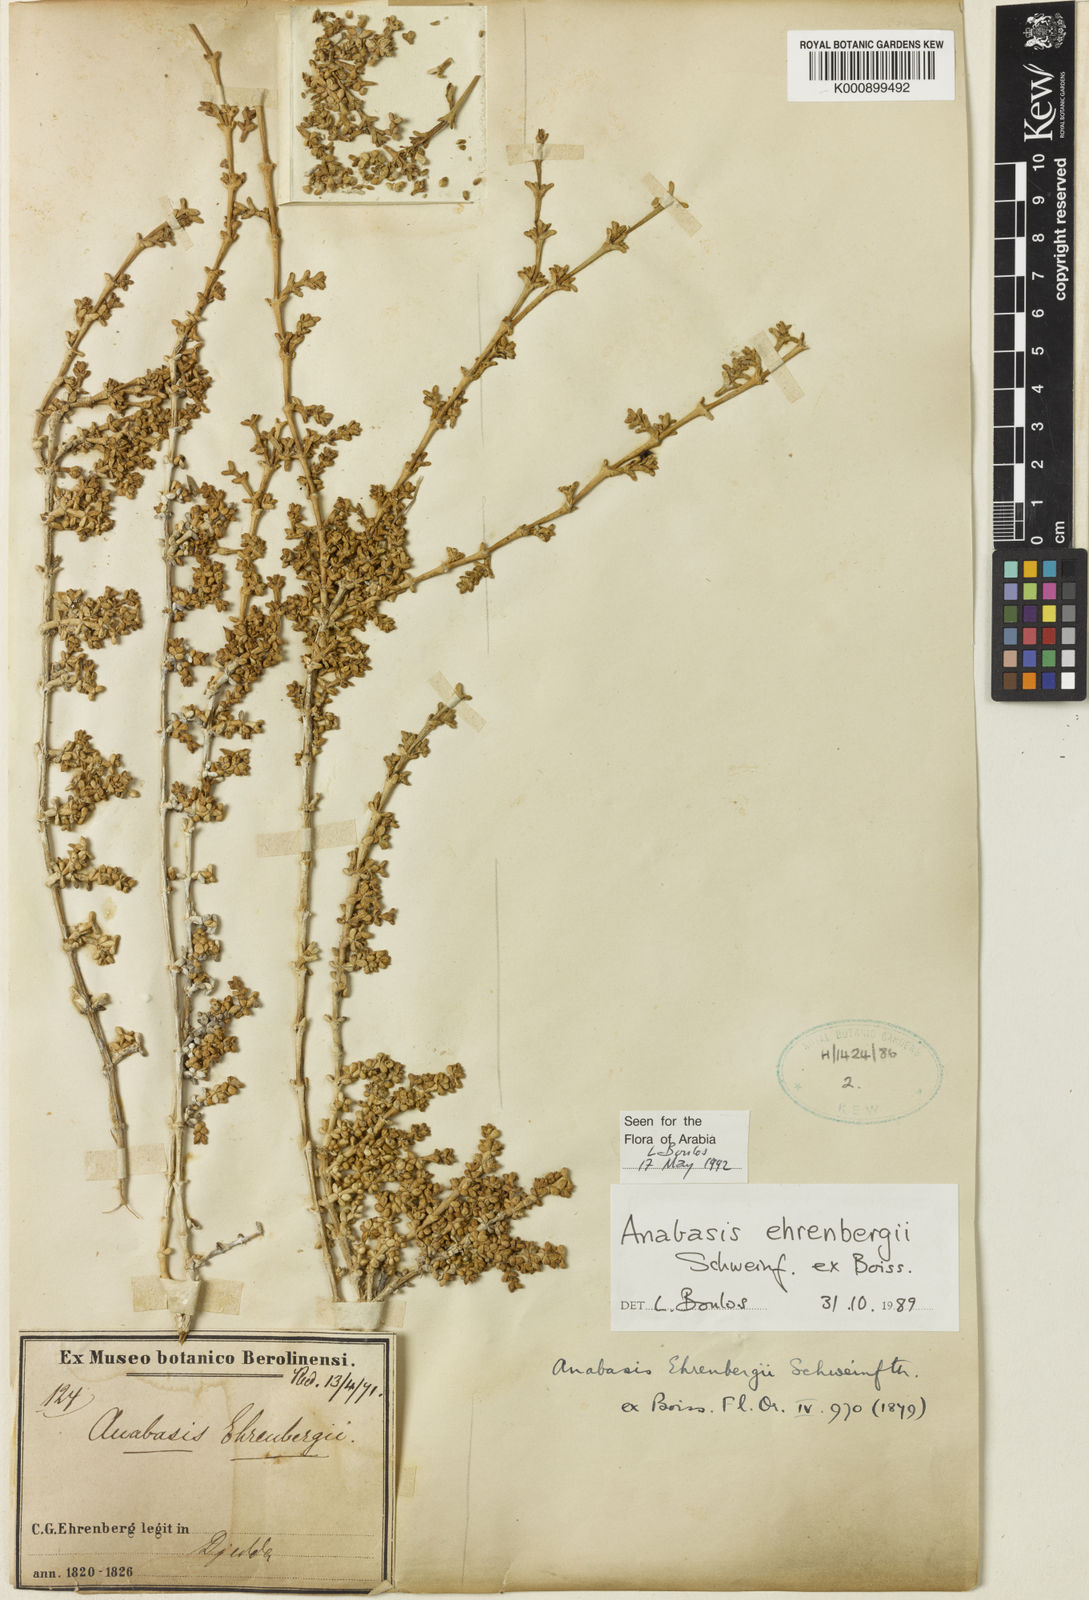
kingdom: Plantae
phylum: Tracheophyta
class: Magnoliopsida
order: Caryophyllales
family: Amaranthaceae
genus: Anabasis
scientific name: Anabasis ehrenbergii
